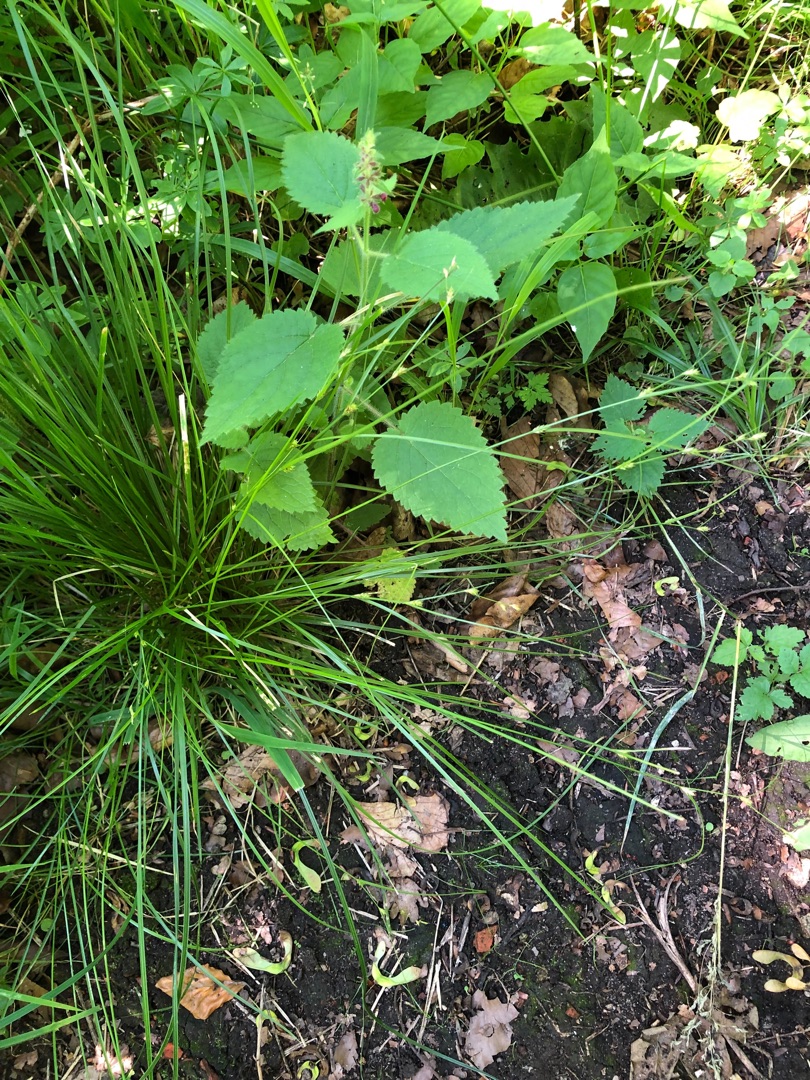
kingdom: Plantae
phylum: Tracheophyta
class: Liliopsida
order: Poales
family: Cyperaceae
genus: Carex
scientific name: Carex remota
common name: Akselblomstret star
